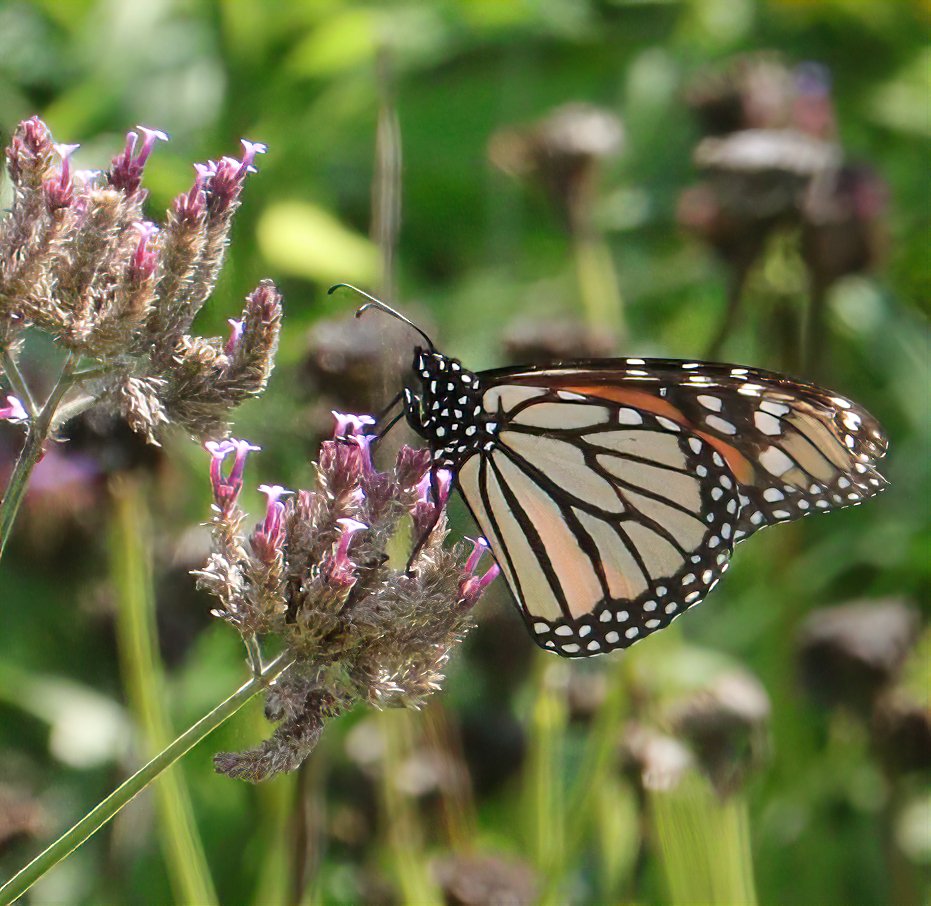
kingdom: Animalia
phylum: Arthropoda
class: Insecta
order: Lepidoptera
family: Nymphalidae
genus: Danaus
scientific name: Danaus plexippus
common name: Monarch
